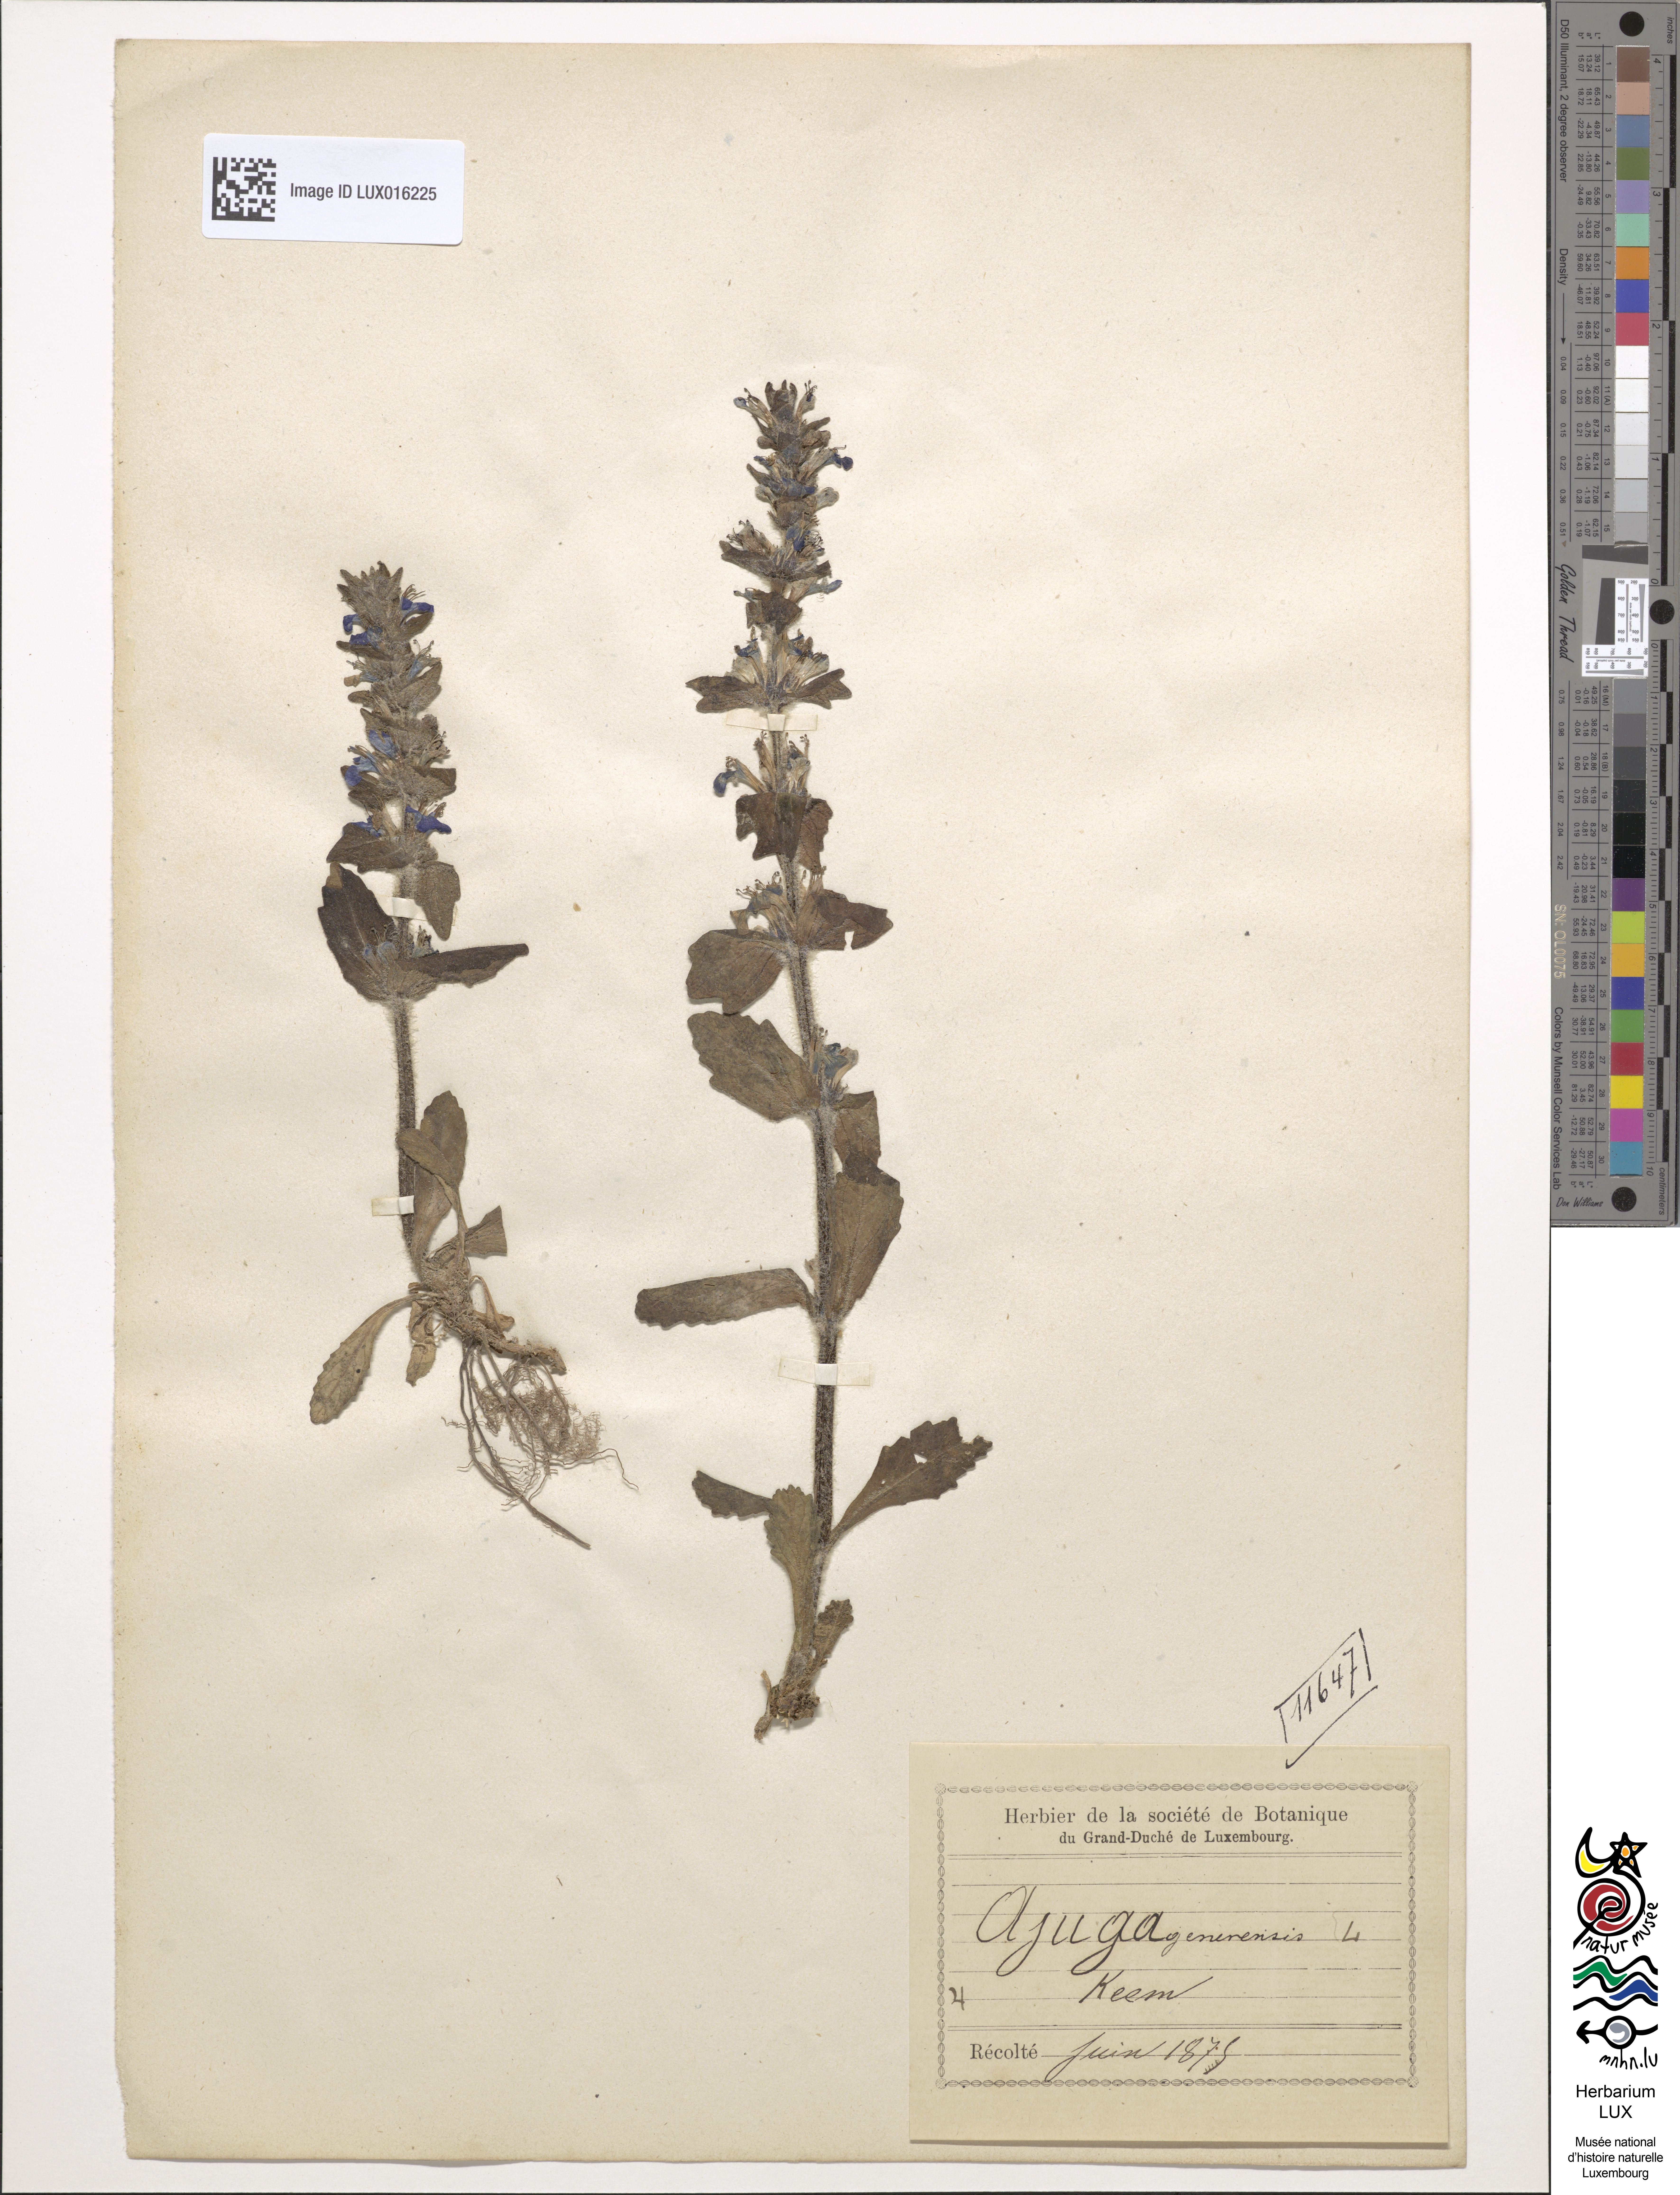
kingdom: Plantae
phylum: Tracheophyta
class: Magnoliopsida
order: Lamiales
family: Lamiaceae
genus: Ajuga
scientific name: Ajuga genevensis
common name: Blue bugle
